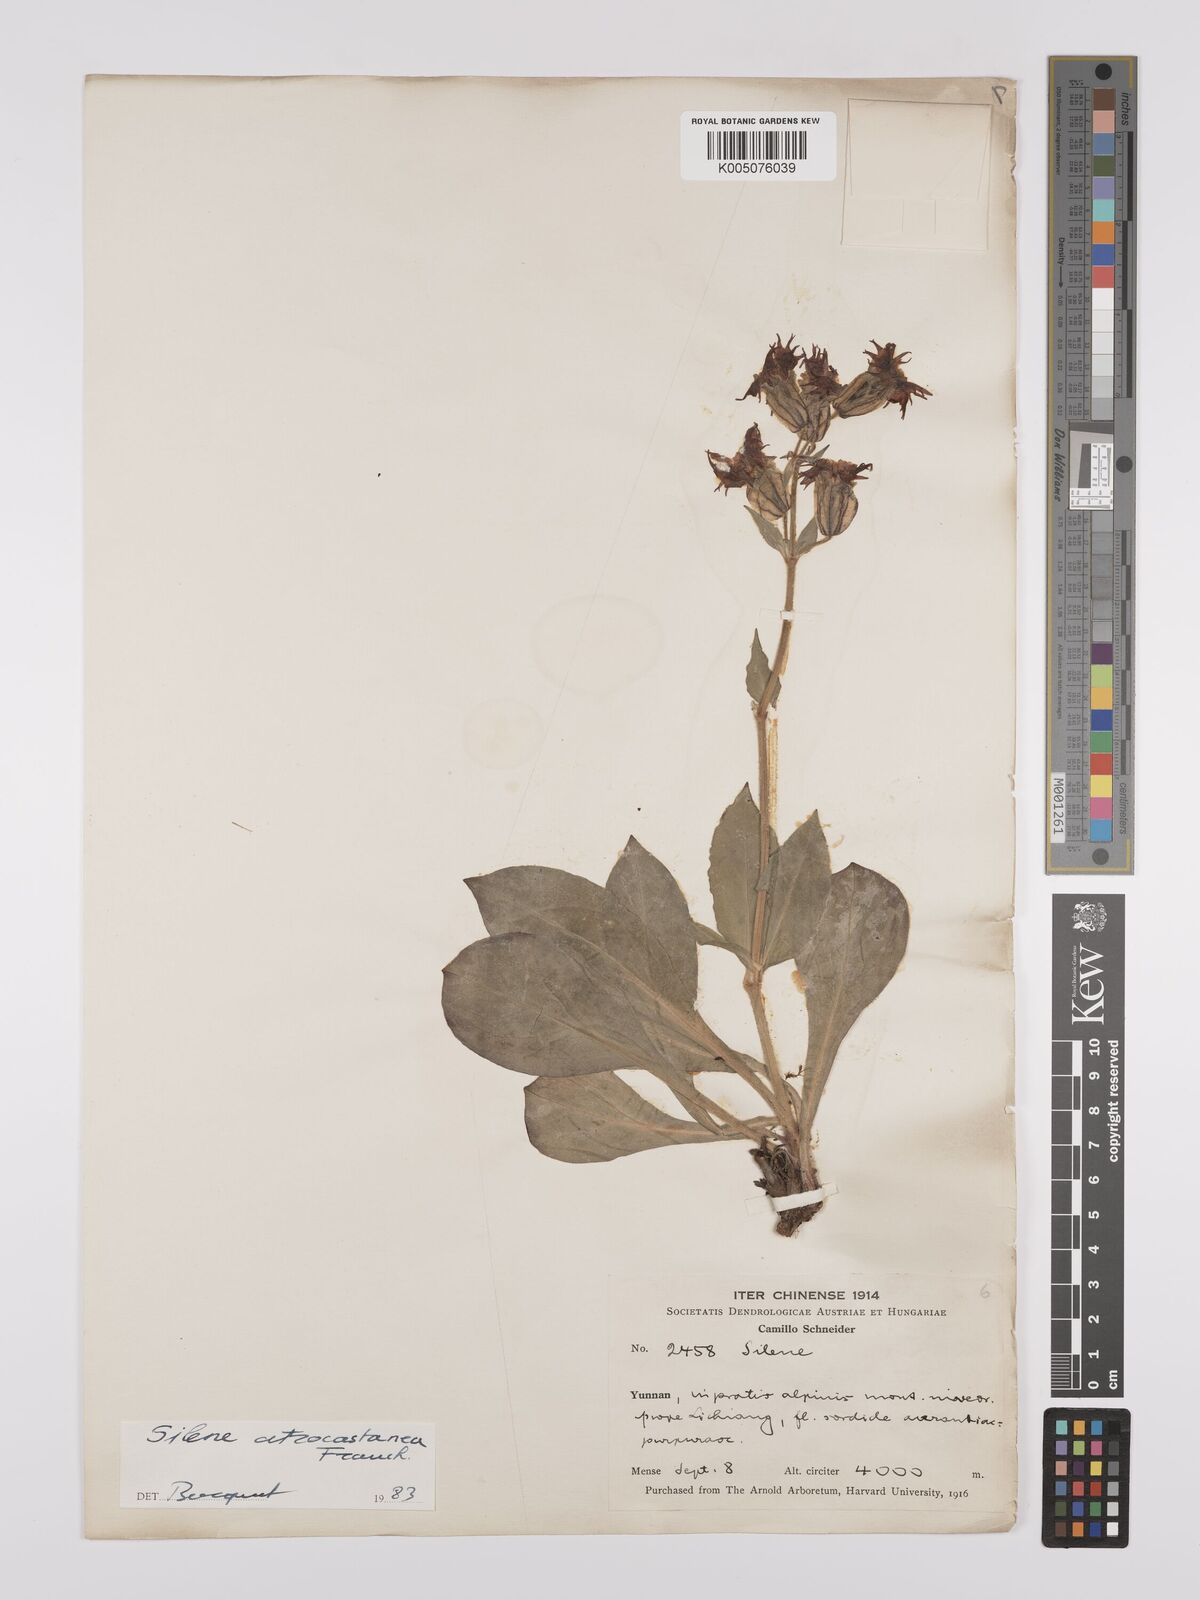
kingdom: Plantae
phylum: Tracheophyta
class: Magnoliopsida
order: Caryophyllales
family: Caryophyllaceae
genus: Silene
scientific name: Silene atrocastanea
